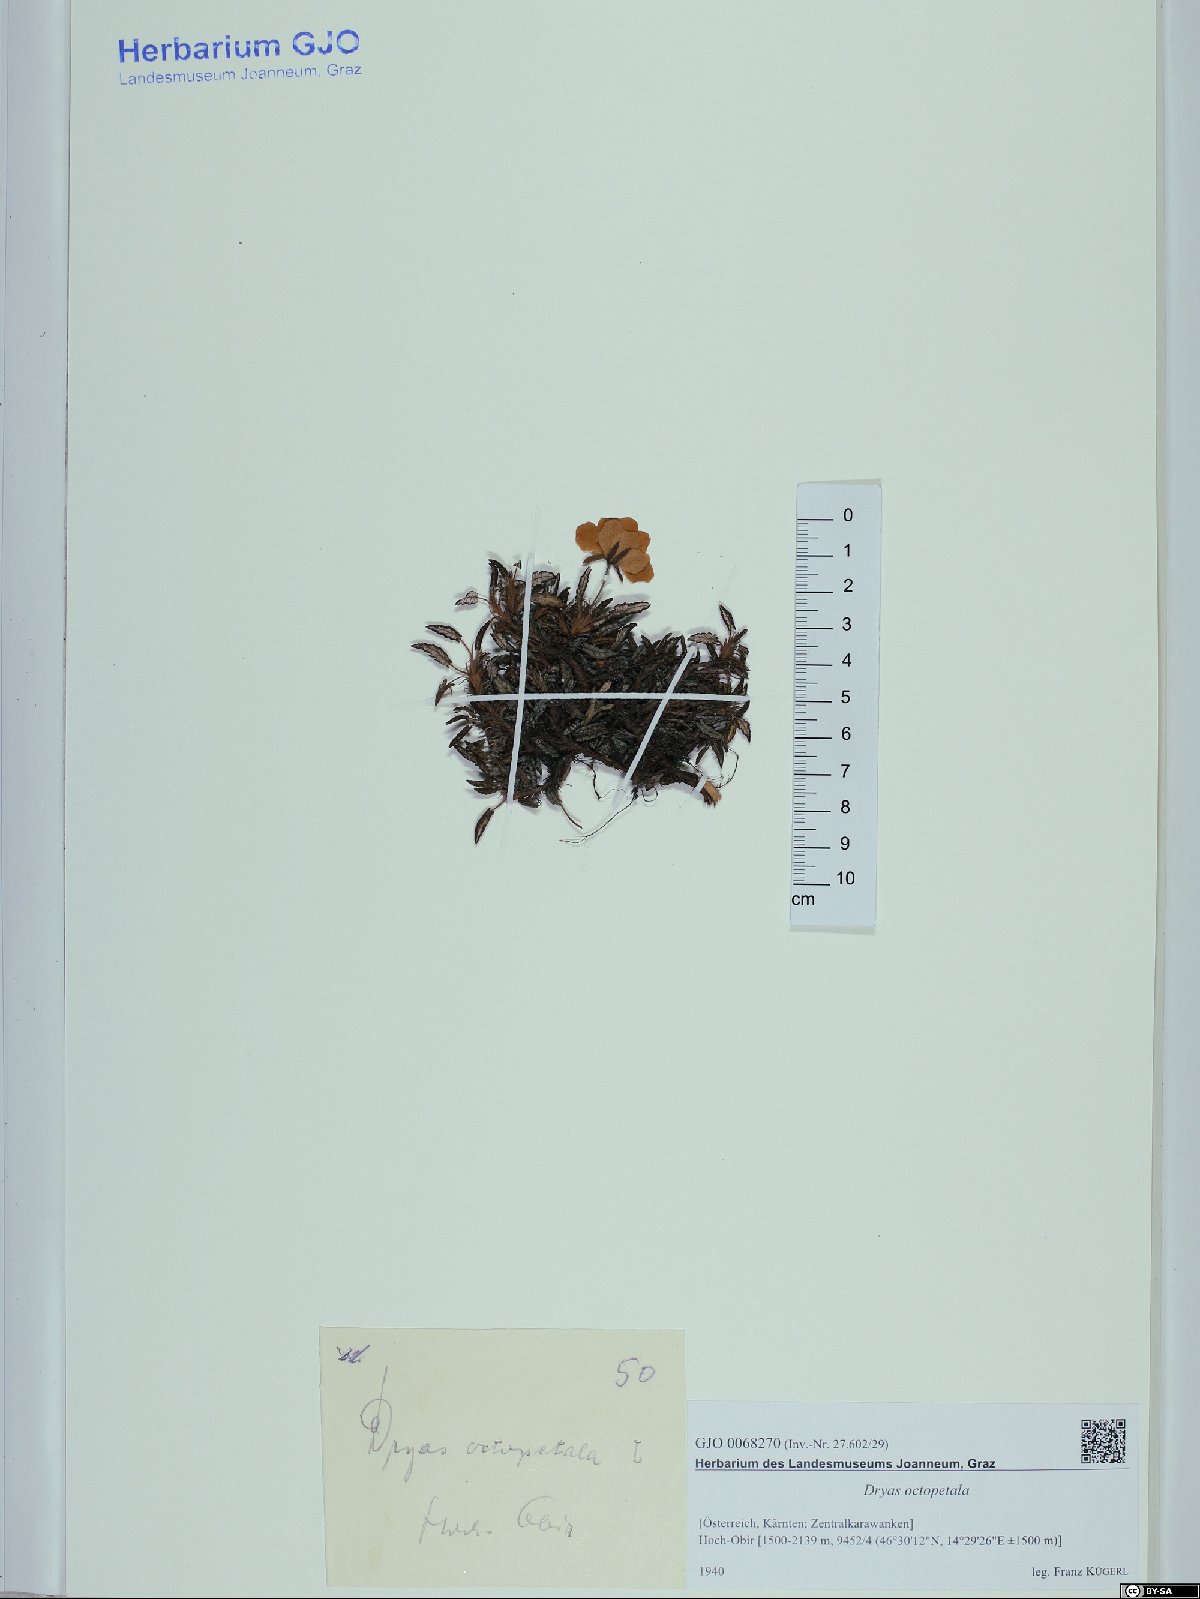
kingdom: Plantae
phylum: Tracheophyta
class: Magnoliopsida
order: Rosales
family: Rosaceae
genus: Dryas
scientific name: Dryas octopetala
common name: Eight-petal mountain-avens
